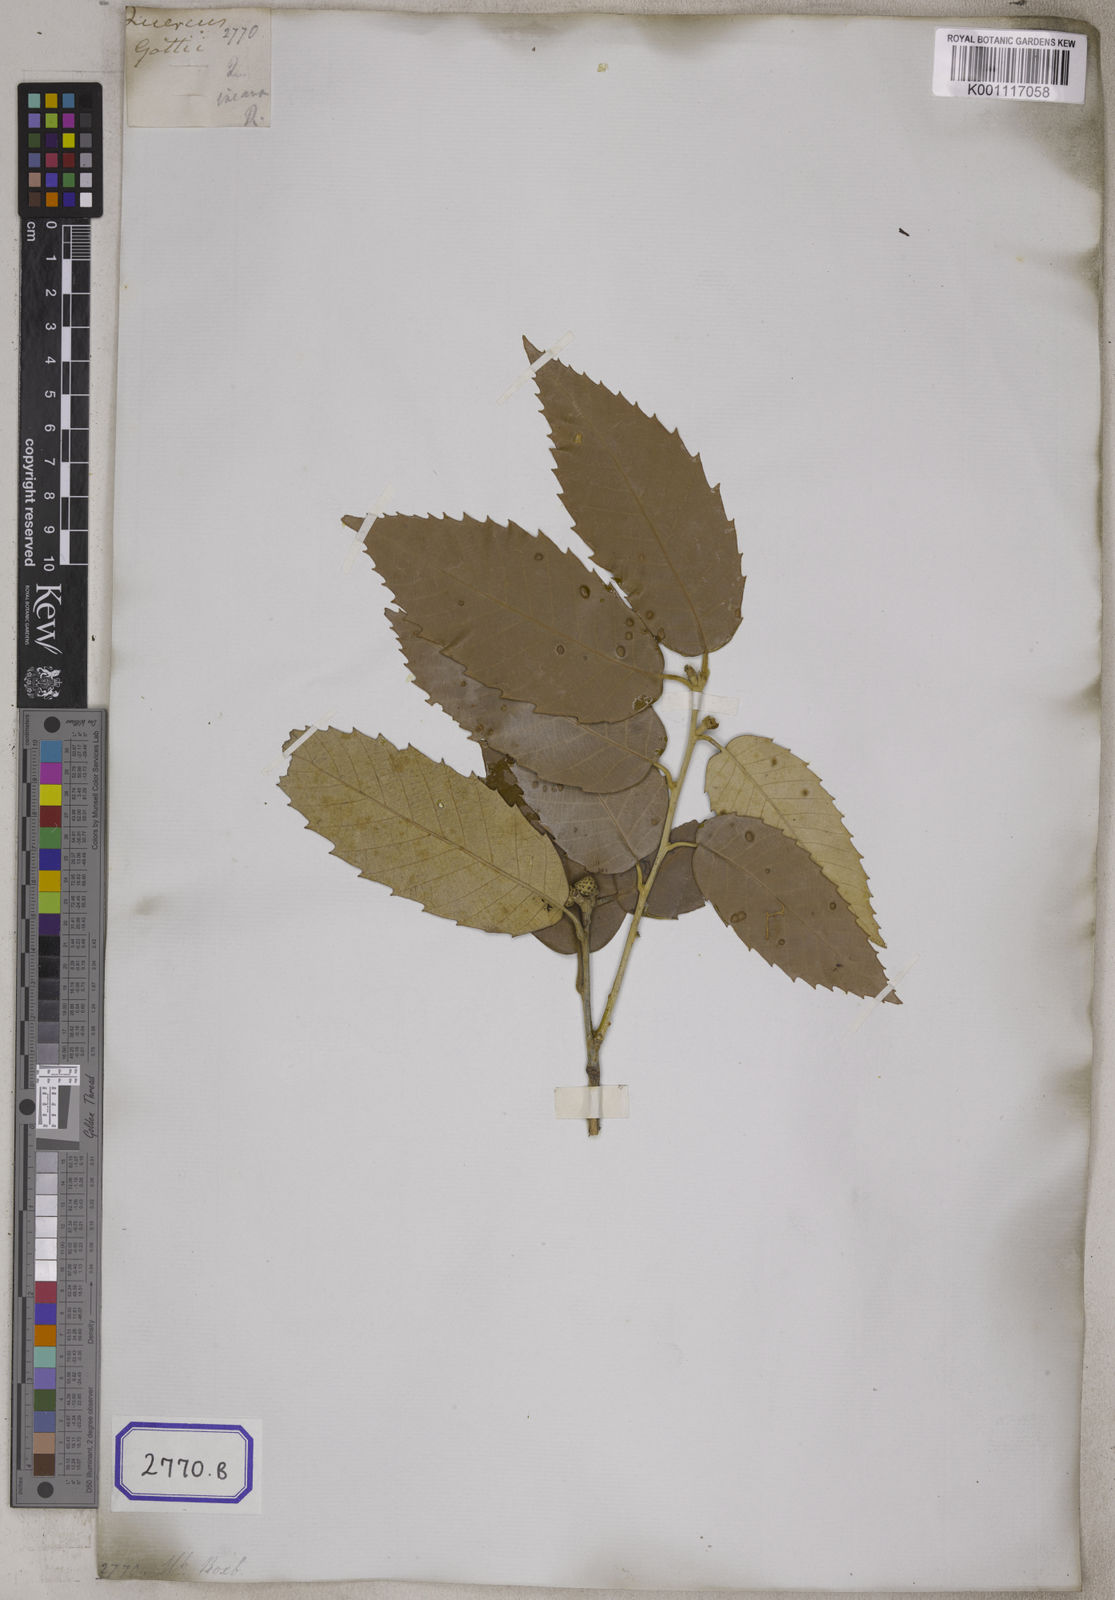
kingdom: Plantae
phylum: Tracheophyta
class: Magnoliopsida
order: Fagales
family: Fagaceae
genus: Quercus
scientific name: Quercus leucotrichophora
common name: Banj oak
